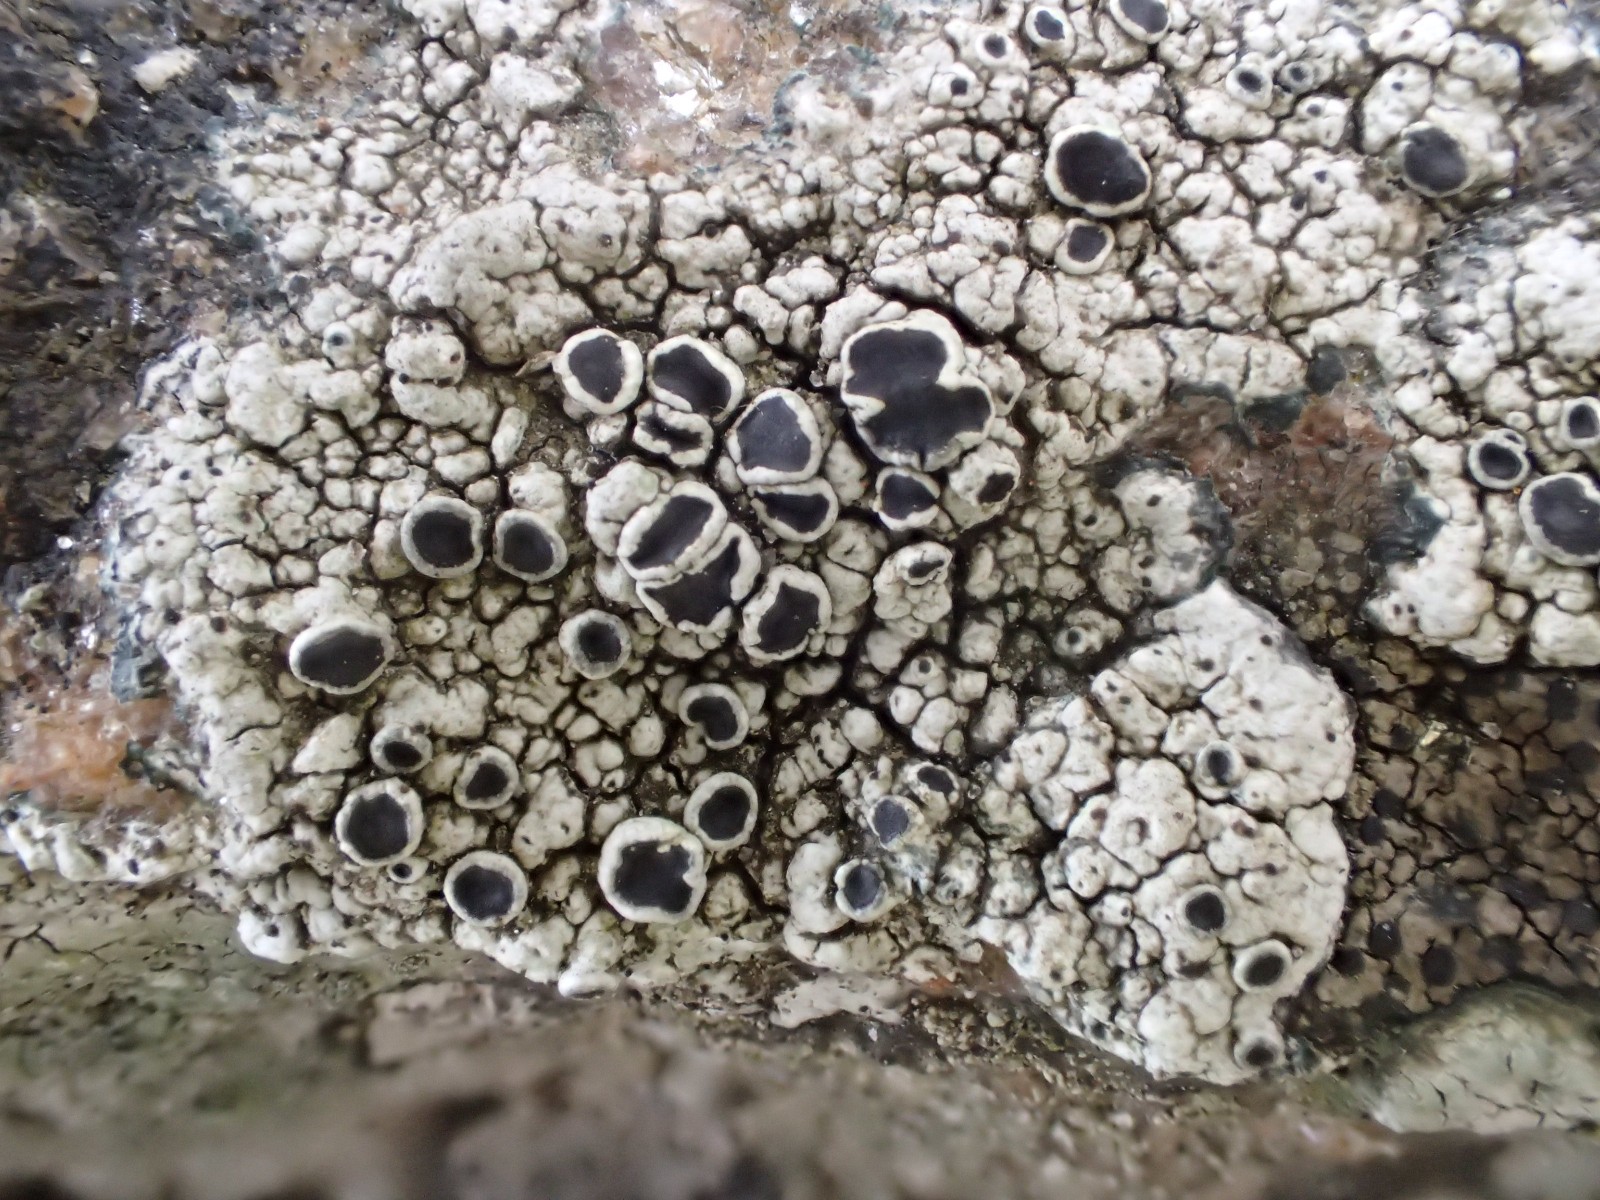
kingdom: Fungi
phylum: Ascomycota
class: Lecanoromycetes
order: Lecanorales
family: Tephromelataceae
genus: Tephromela
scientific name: Tephromela atra
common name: sortfrugtet kantskivelav
